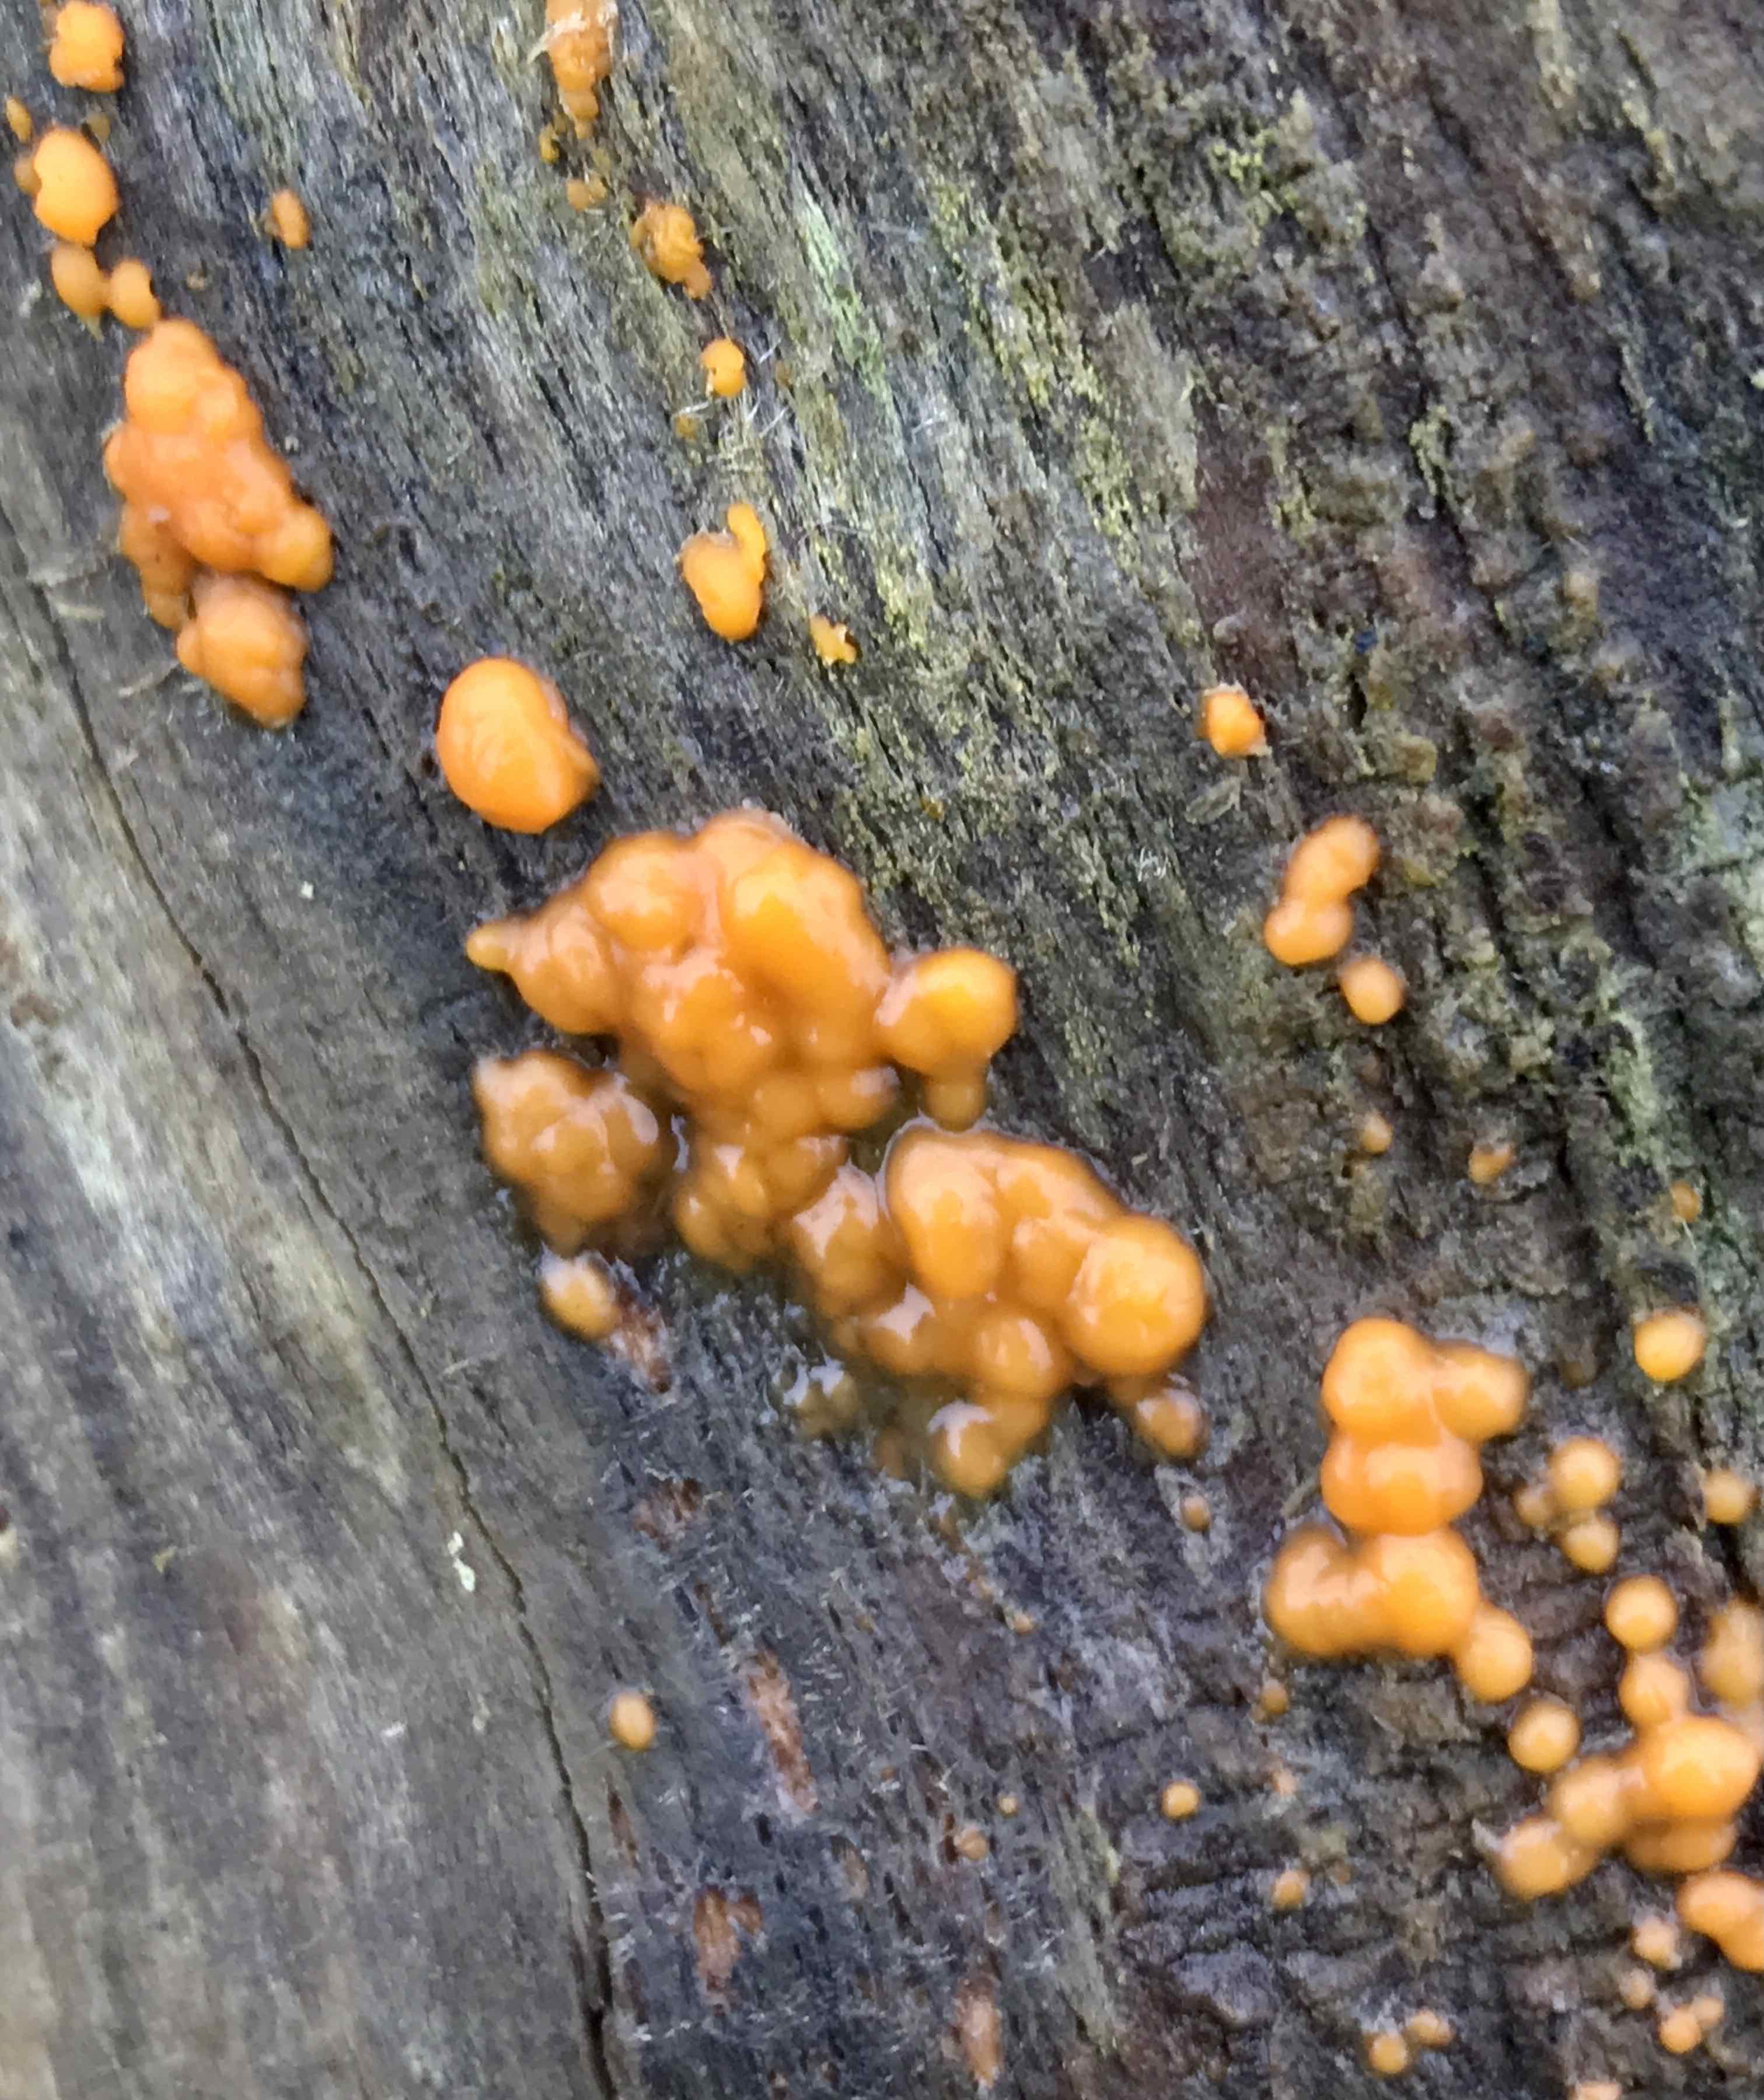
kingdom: Fungi
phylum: Basidiomycota
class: Dacrymycetes
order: Dacrymycetales
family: Dacrymycetaceae
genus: Dacrymyces
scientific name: Dacrymyces stillatus
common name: almindelig tåresvamp
